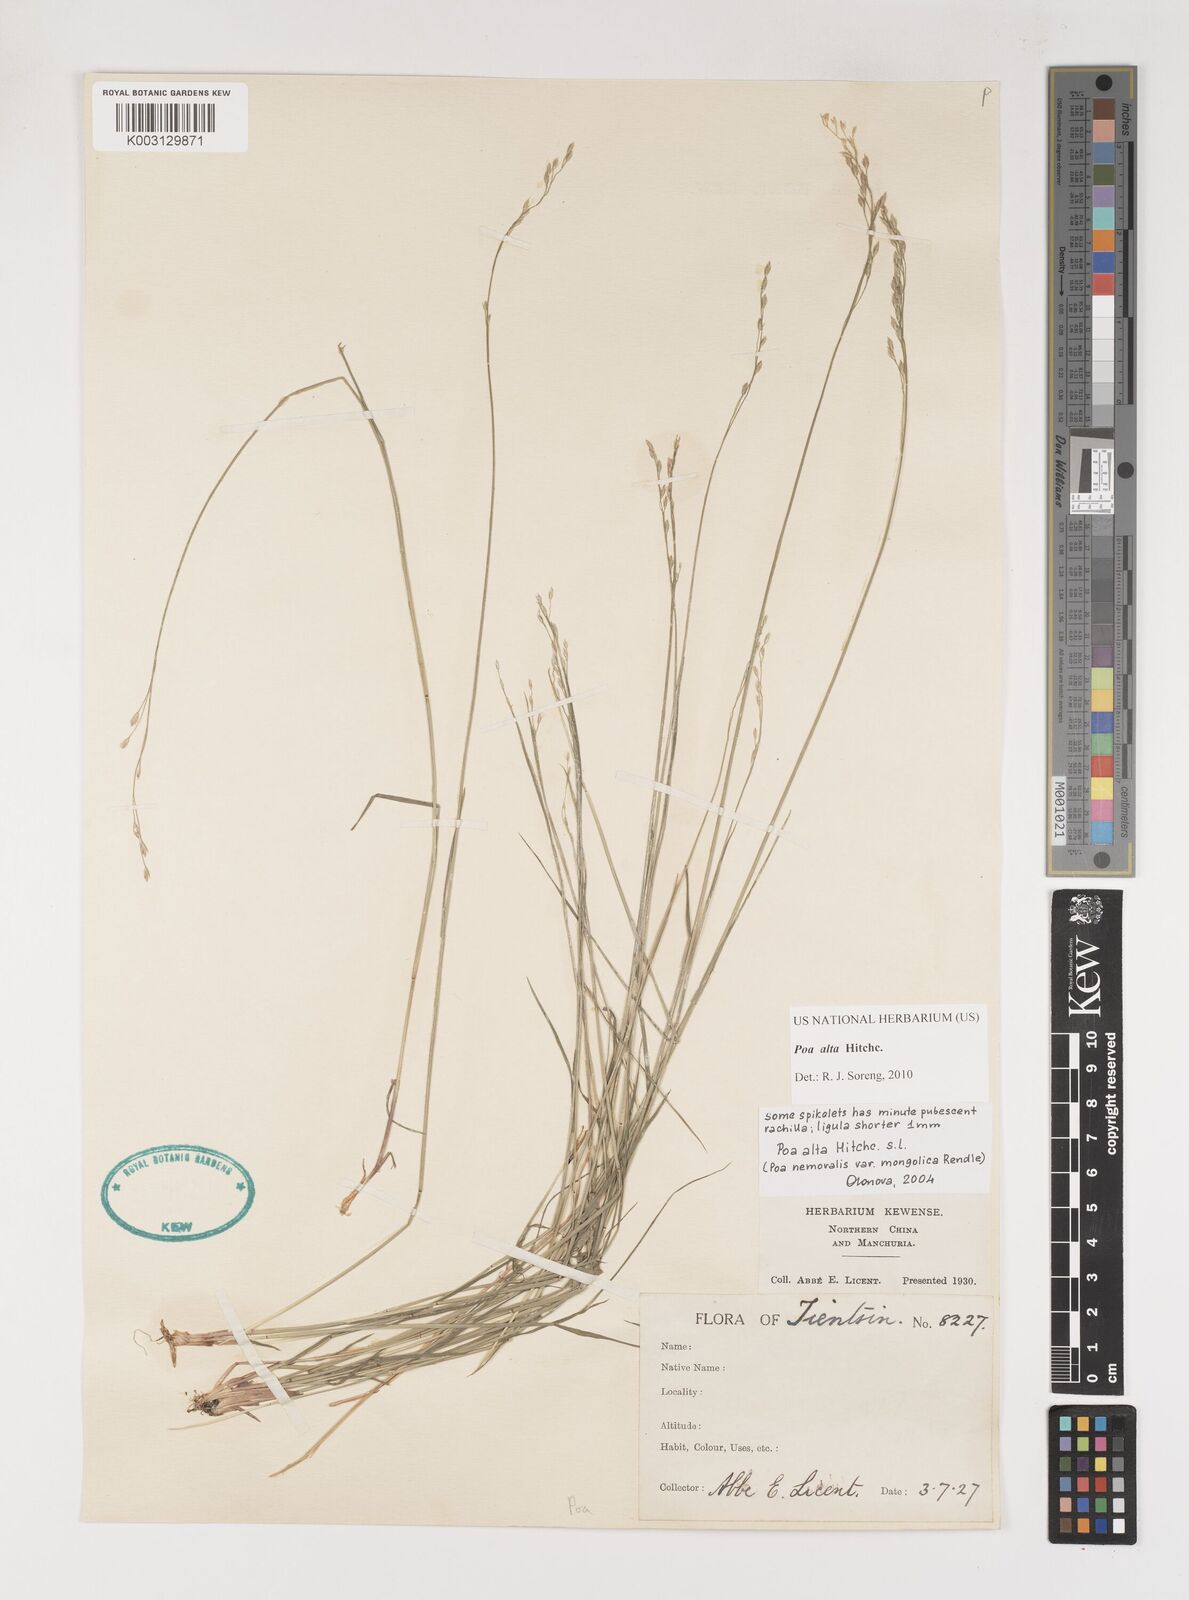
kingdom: Plantae
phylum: Tracheophyta
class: Liliopsida
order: Poales
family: Poaceae
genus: Poa
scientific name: Poa alta
